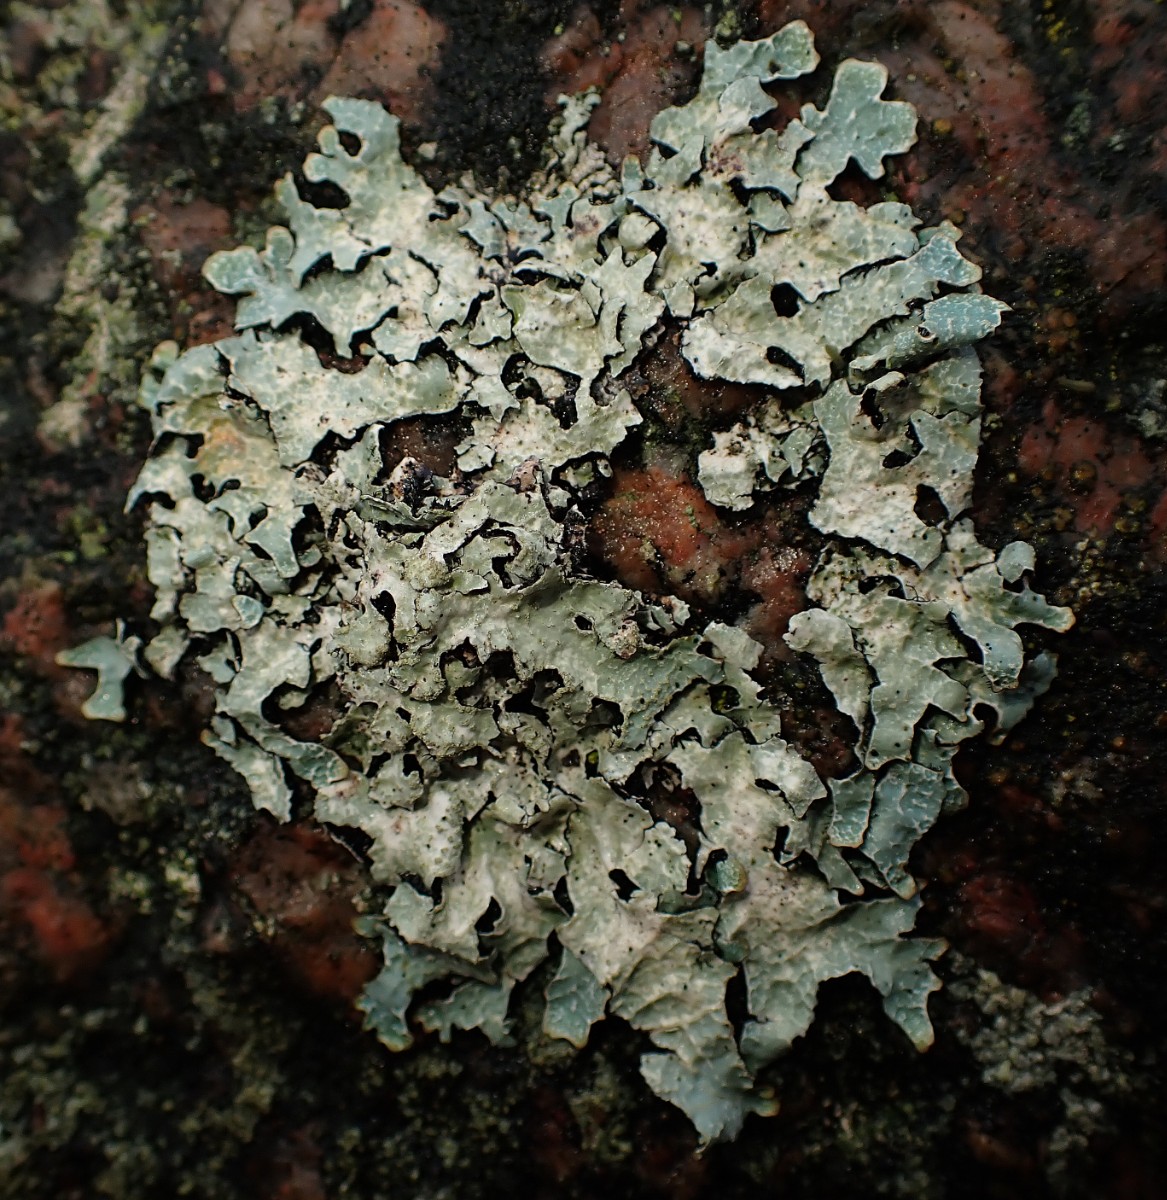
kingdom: Fungi
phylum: Ascomycota
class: Lecanoromycetes
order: Lecanorales
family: Parmeliaceae
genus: Parmelia
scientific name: Parmelia sulcata
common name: rynket skållav
